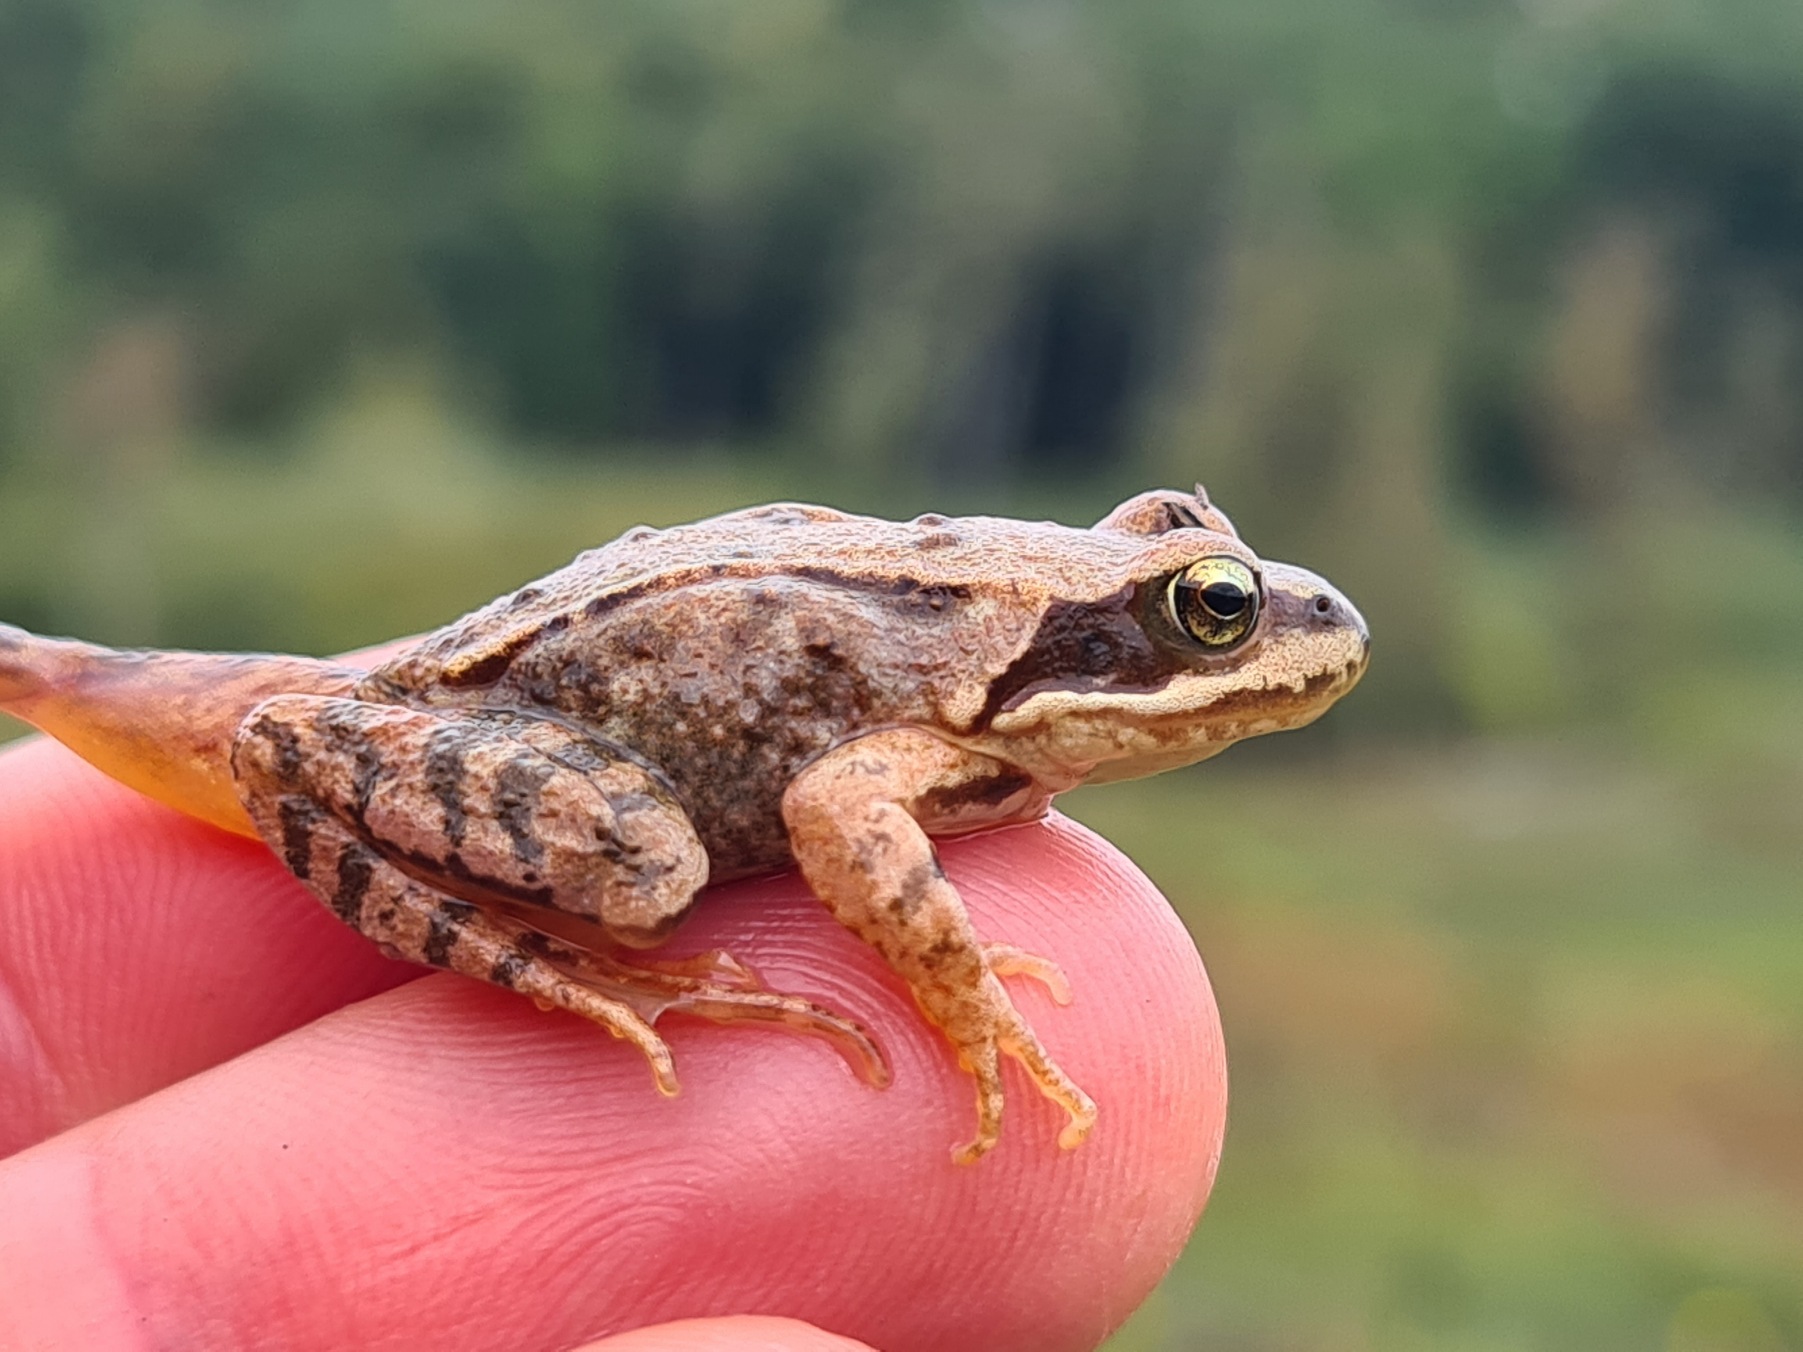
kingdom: Animalia
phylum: Chordata
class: Amphibia
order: Anura
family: Ranidae
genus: Rana
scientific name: Rana temporaria
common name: Butsnudet frø
